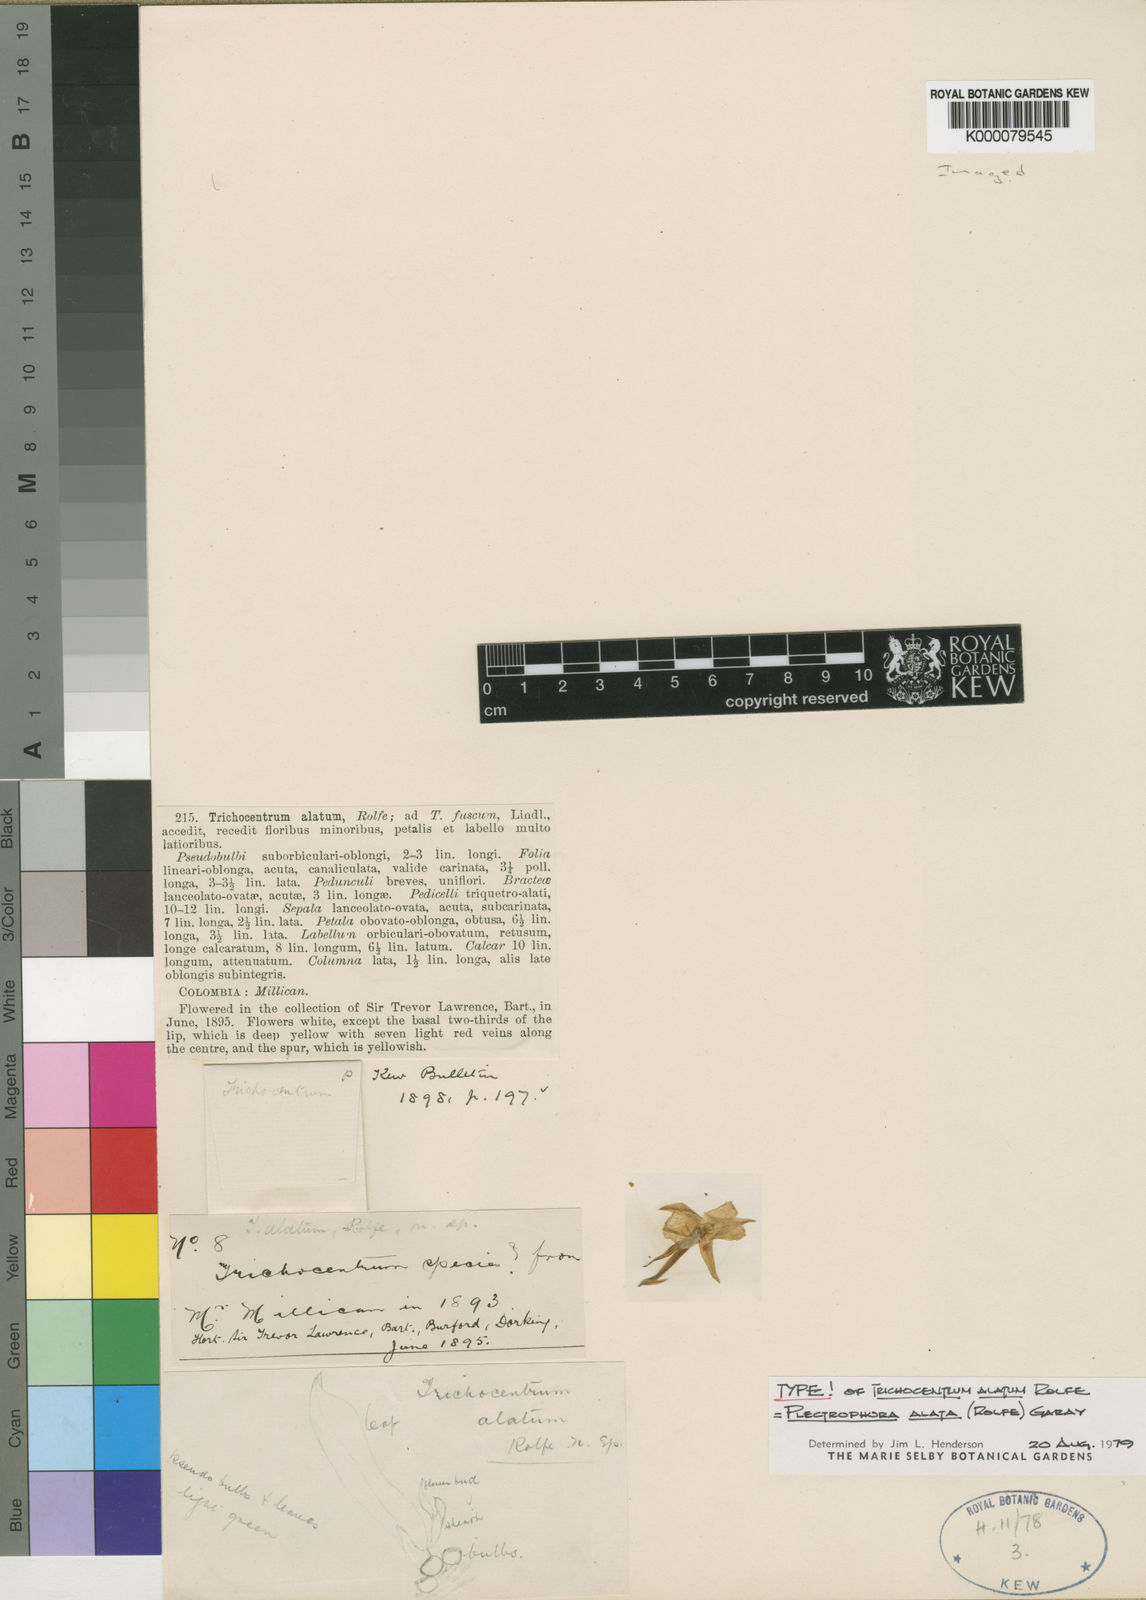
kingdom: Plantae
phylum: Tracheophyta
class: Liliopsida
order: Asparagales
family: Orchidaceae
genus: Plectrophora
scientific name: Plectrophora alata
